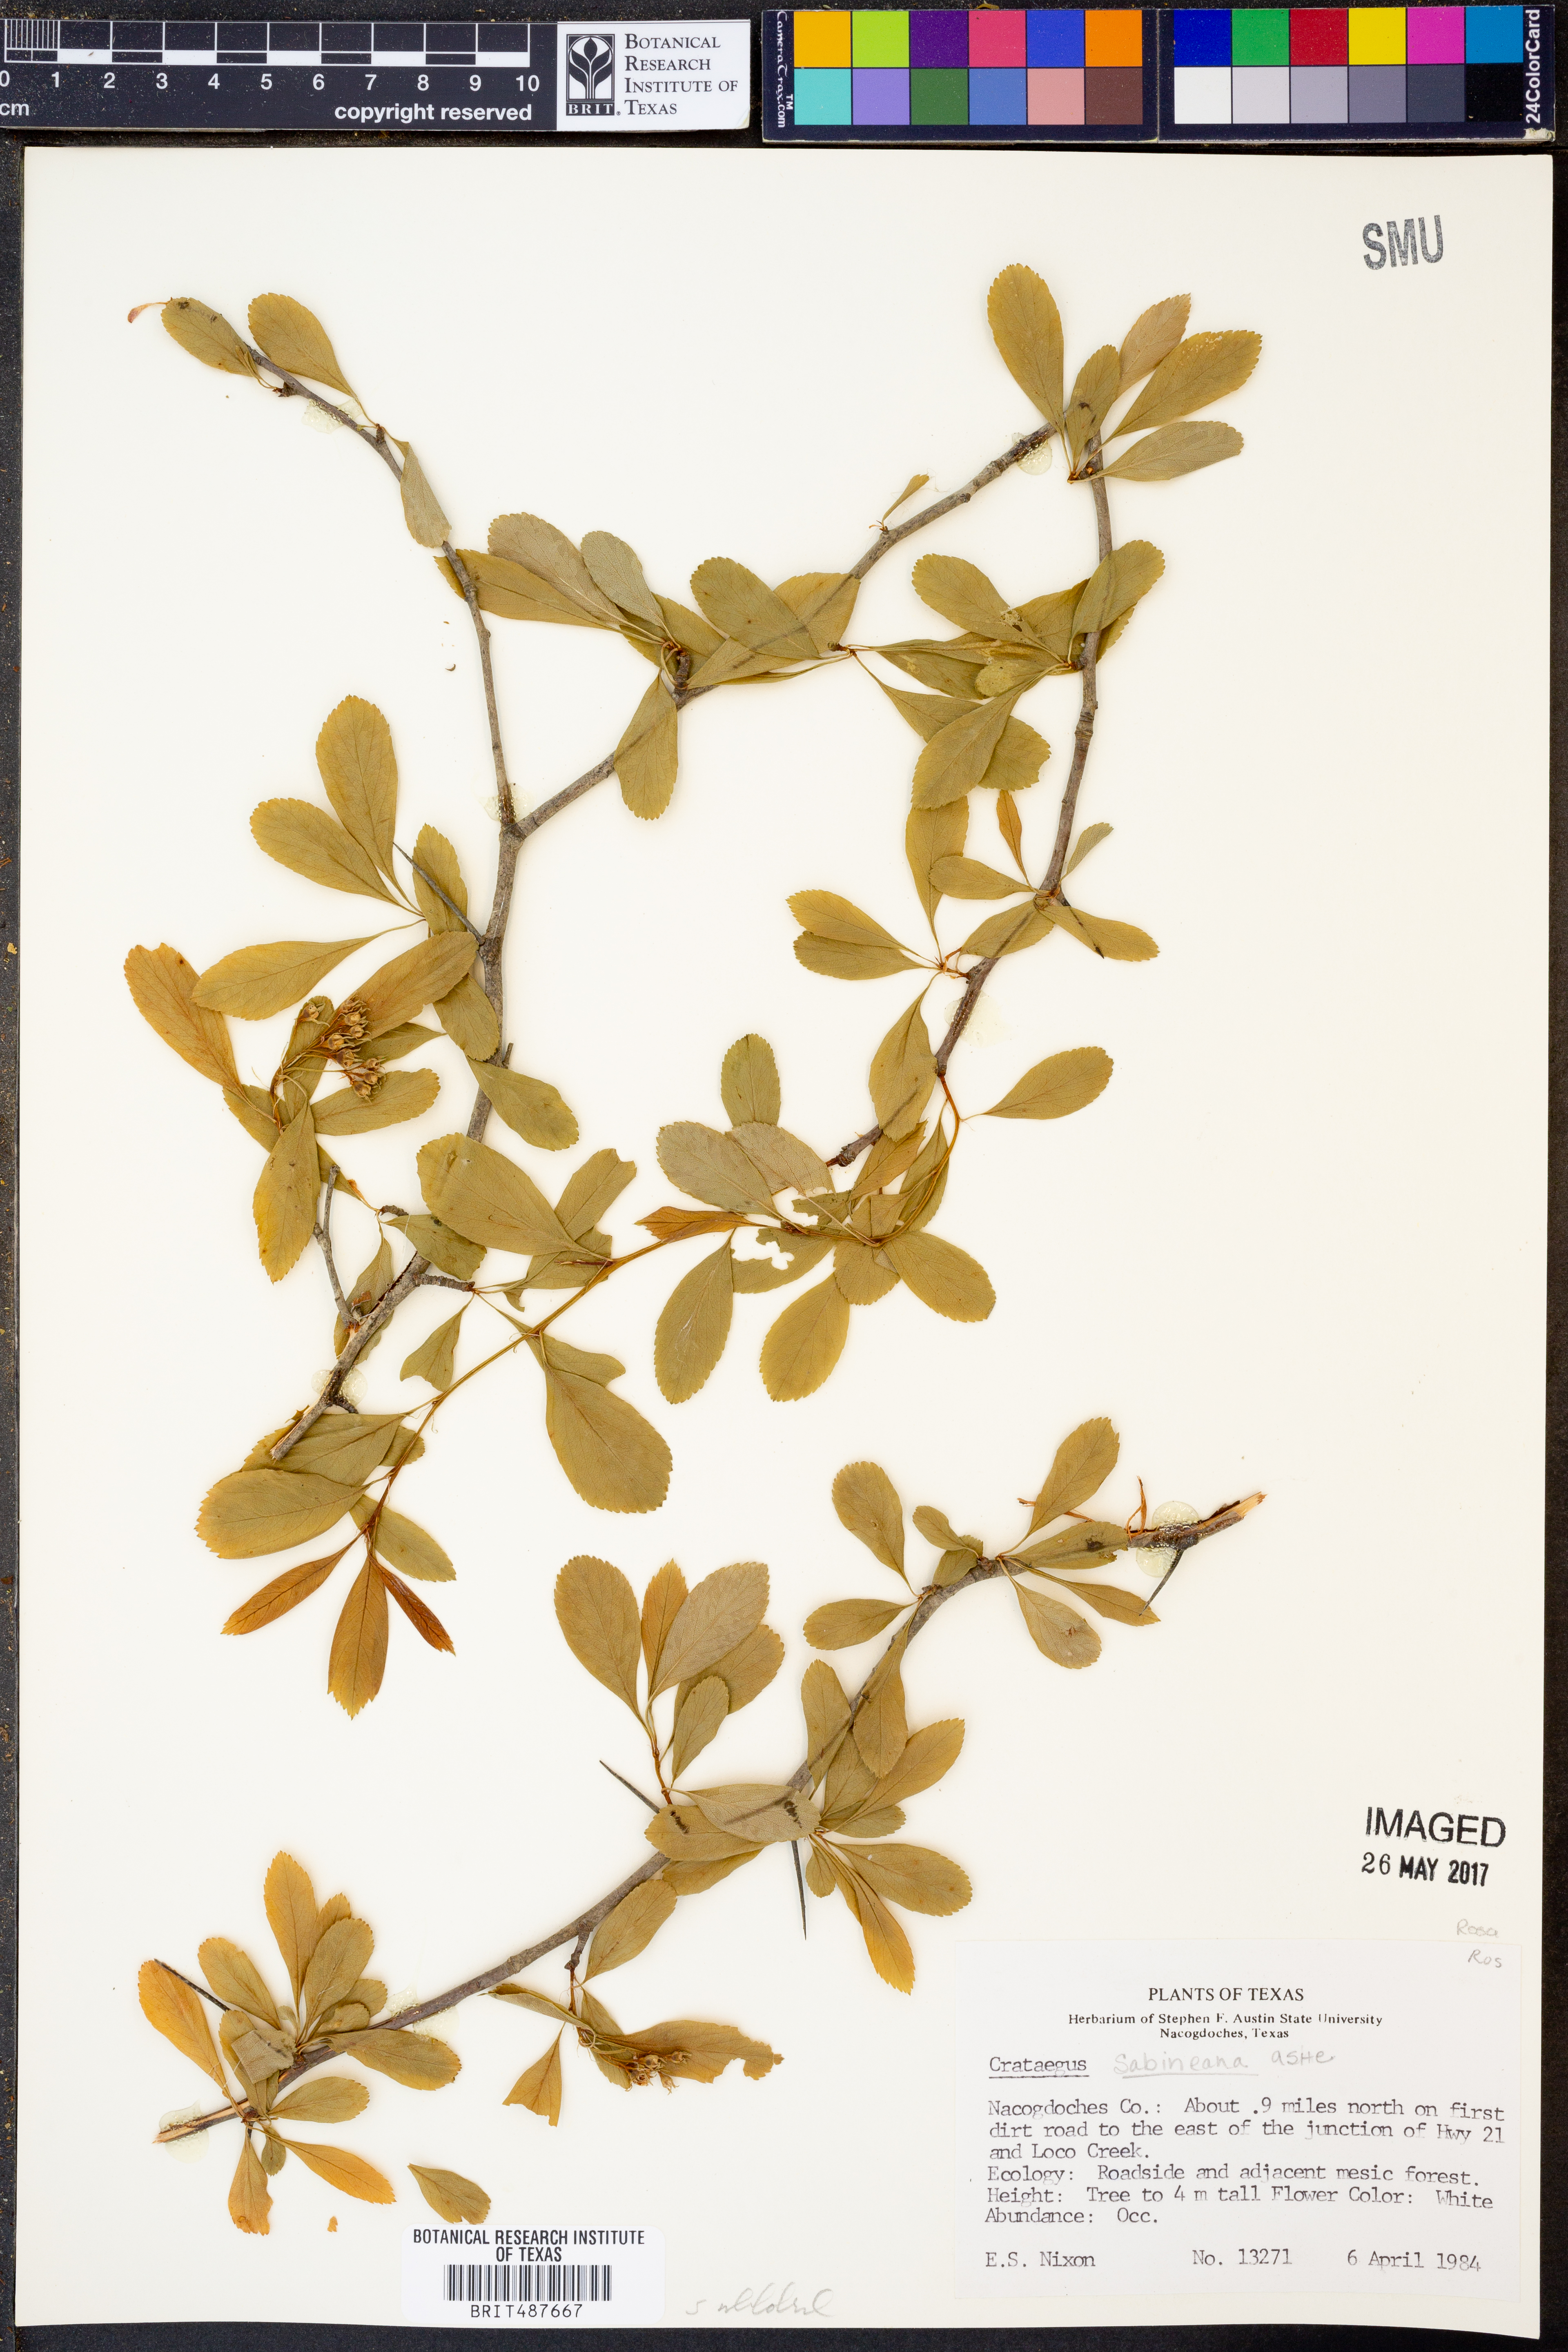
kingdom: Plantae
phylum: Tracheophyta
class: Magnoliopsida
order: Rosales
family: Rosaceae
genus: Crataegus
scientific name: Crataegus crus-galli
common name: Cockspurthorn
